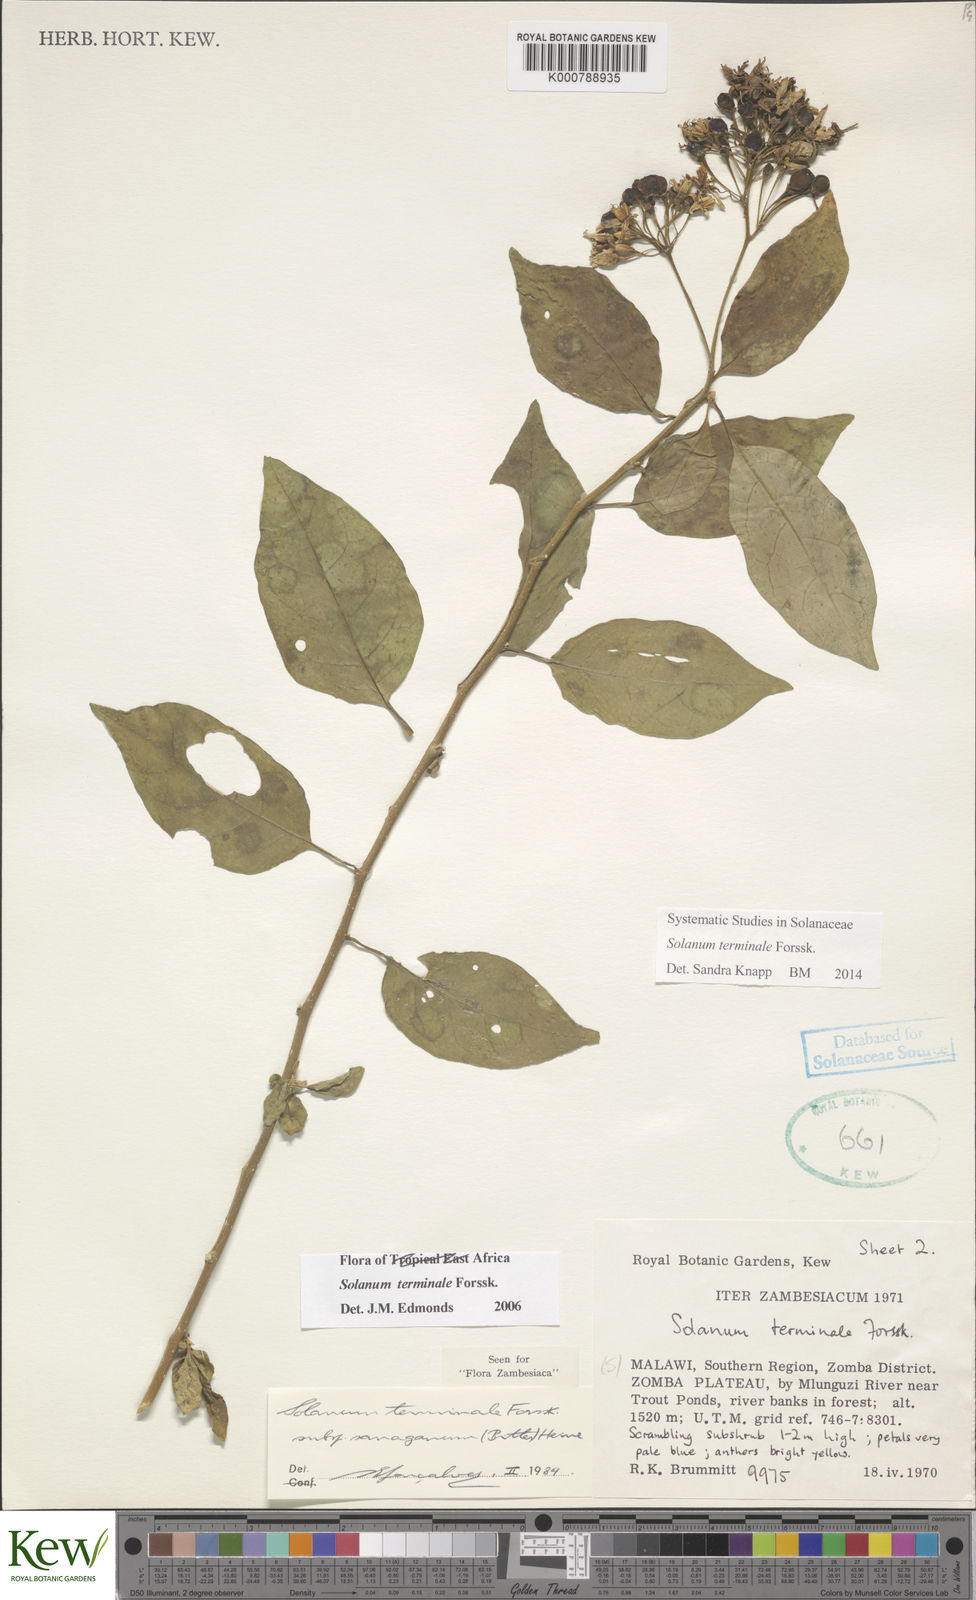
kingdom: Plantae
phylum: Tracheophyta
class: Magnoliopsida
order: Solanales
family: Solanaceae
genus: Solanum
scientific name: Solanum terminale
